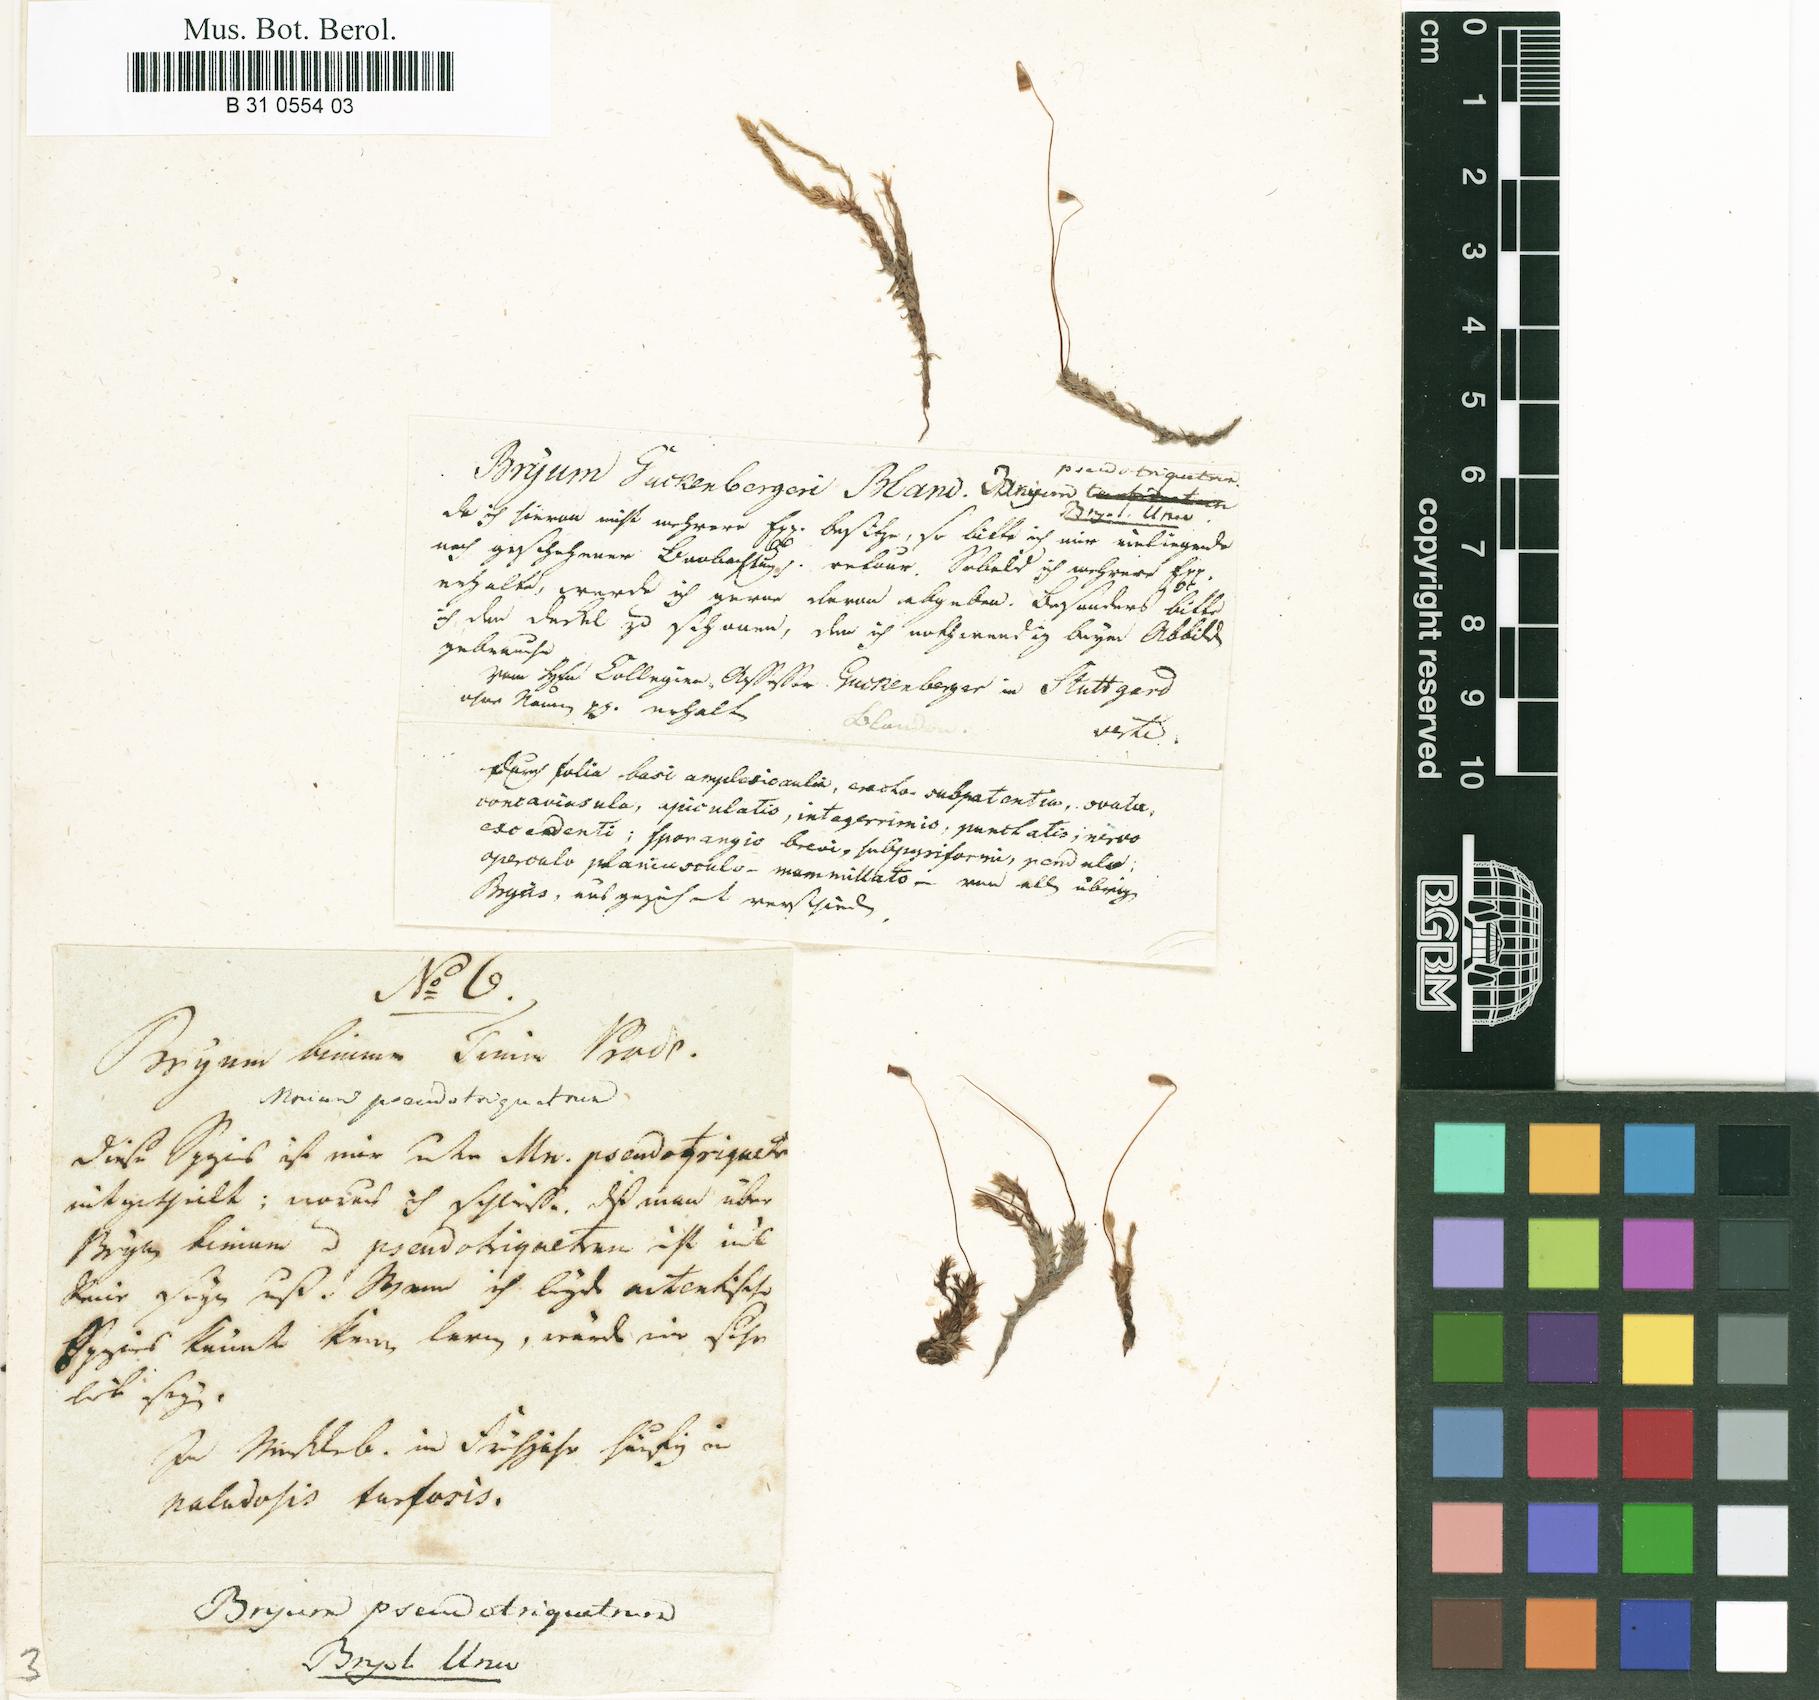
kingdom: Plantae
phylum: Bryophyta
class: Bryopsida
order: Bryales
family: Bryaceae
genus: Ptychostomum
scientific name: Ptychostomum pseudotriquetrum
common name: Long-leaved thread moss
